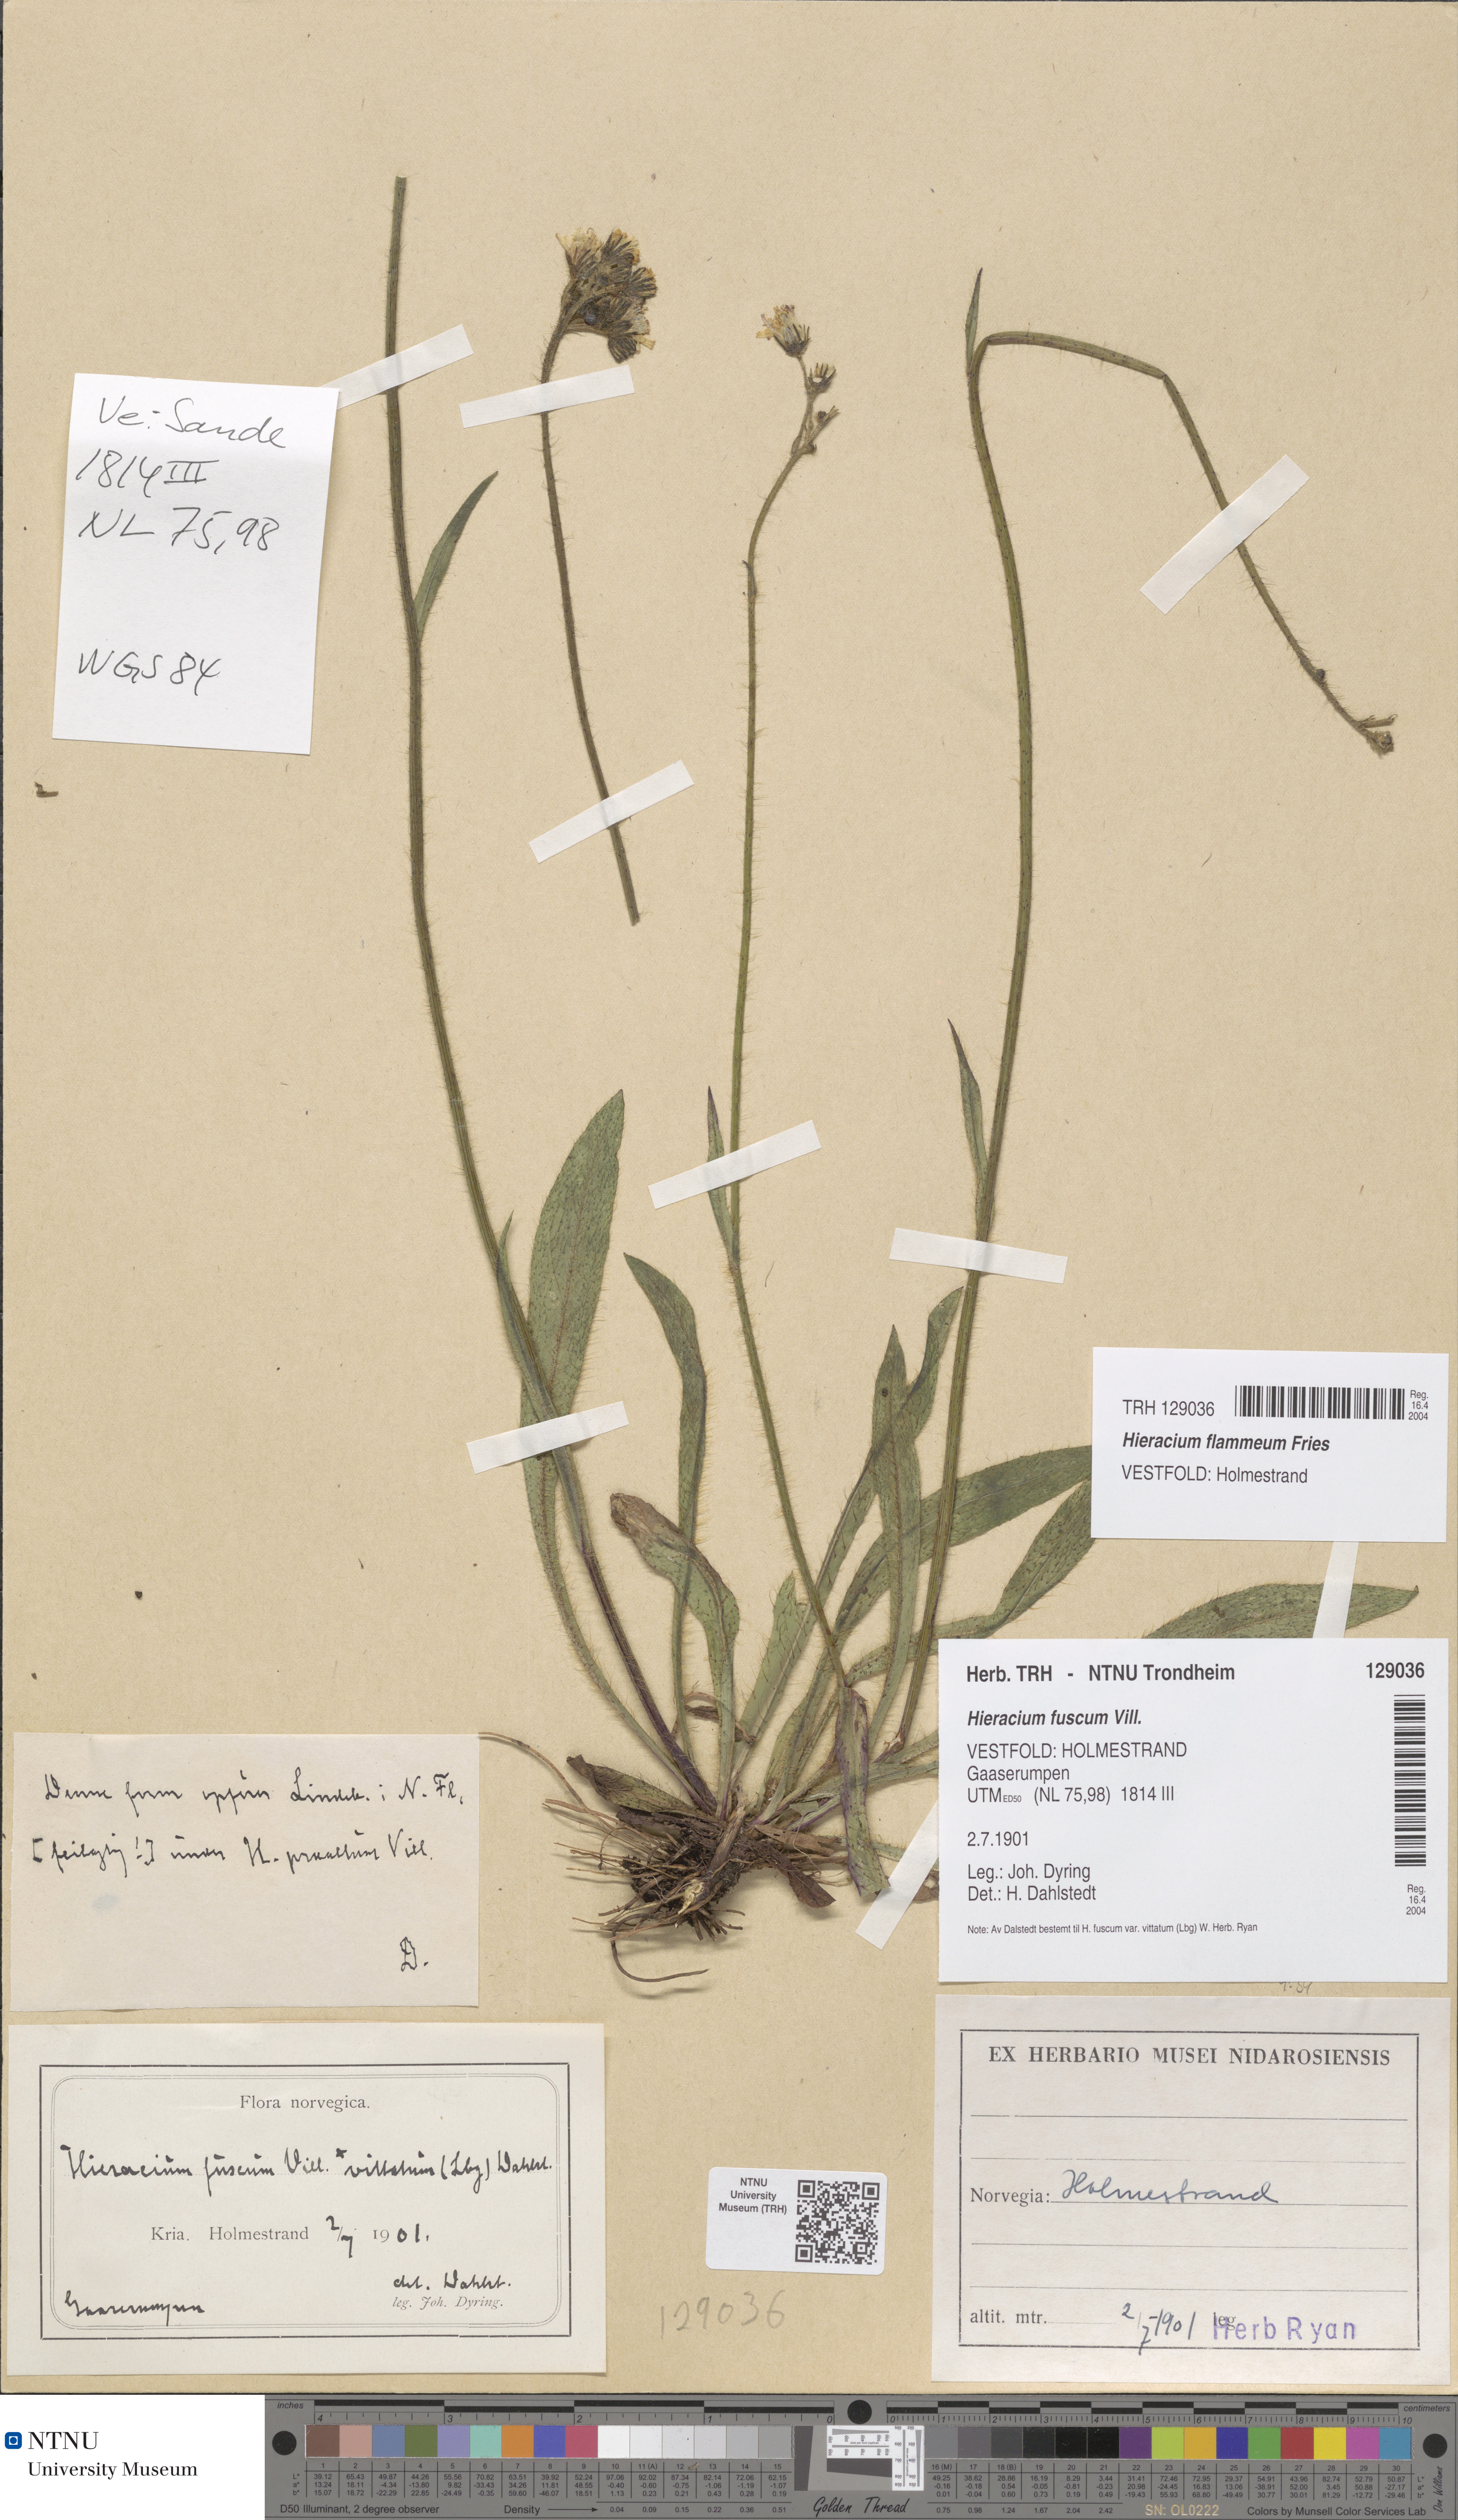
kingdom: Plantae
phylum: Tracheophyta
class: Magnoliopsida
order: Asterales
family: Asteraceae
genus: Pilosella
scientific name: Pilosella fusca
